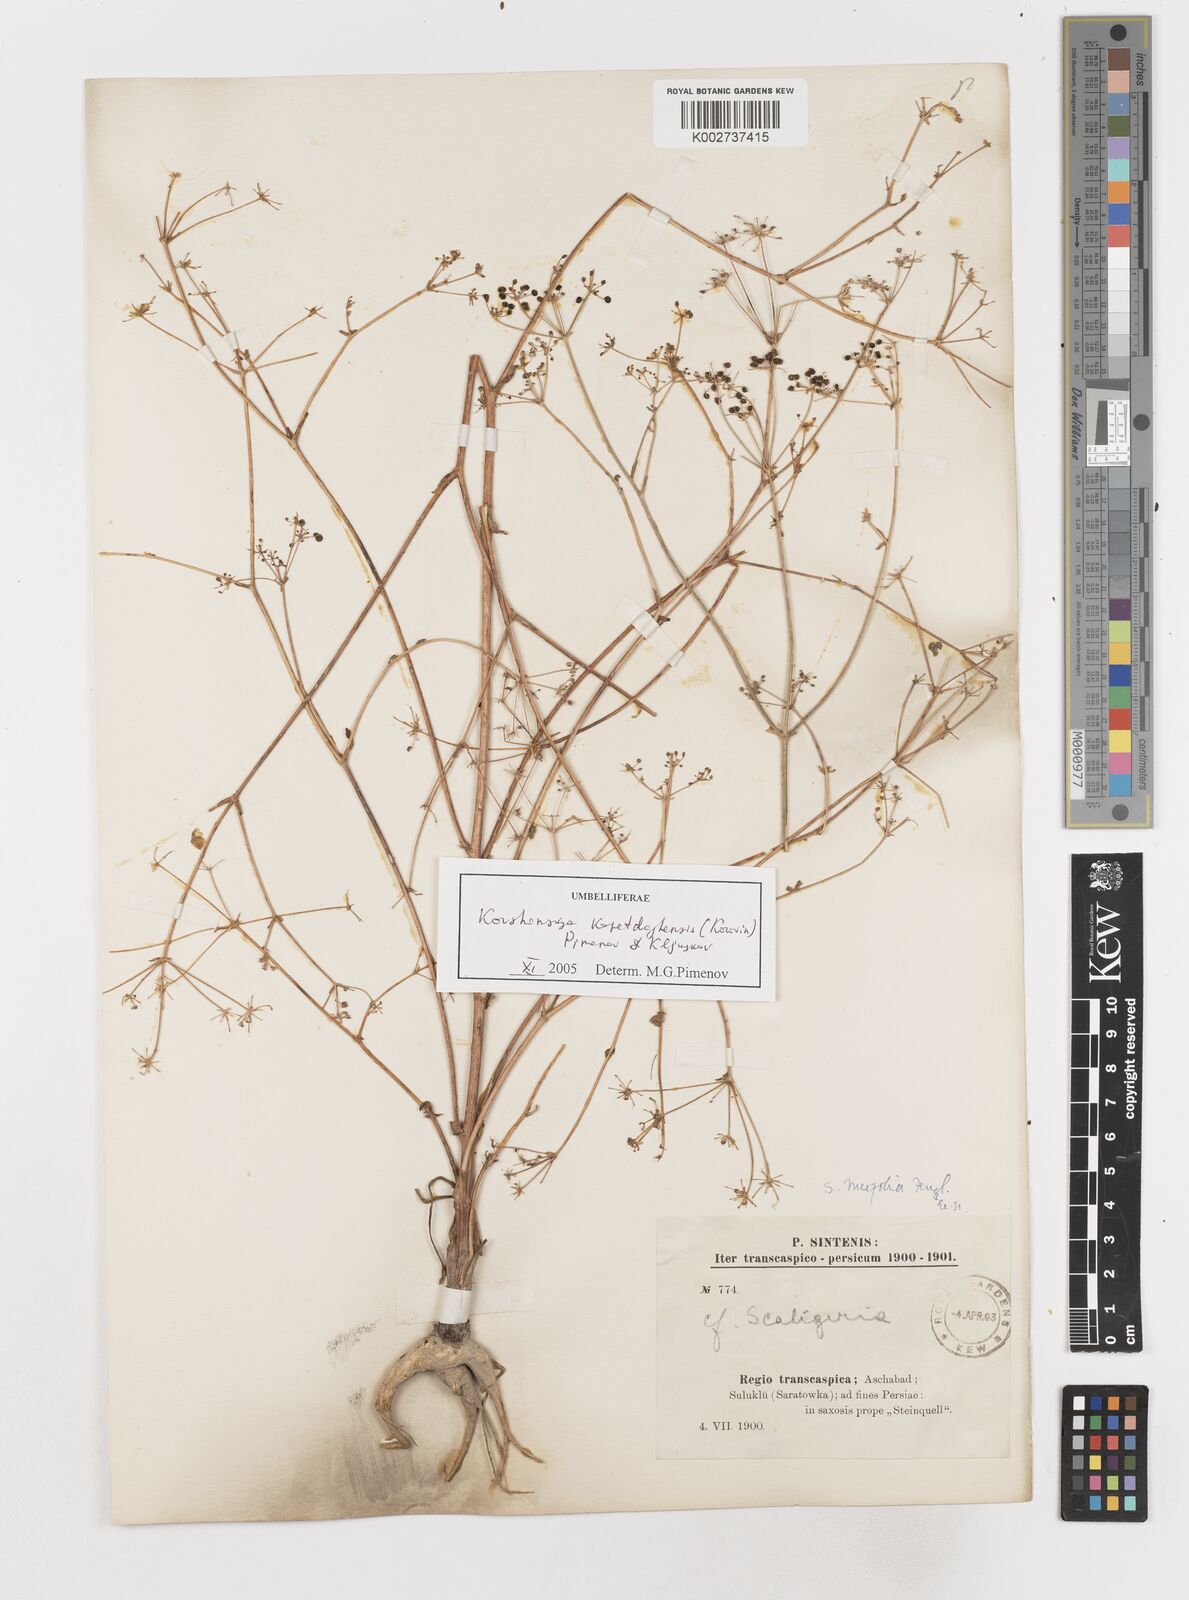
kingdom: Plantae
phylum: Tracheophyta
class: Magnoliopsida
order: Apiales
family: Apiaceae
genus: Elaeosticta
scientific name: Elaeosticta meifolia
